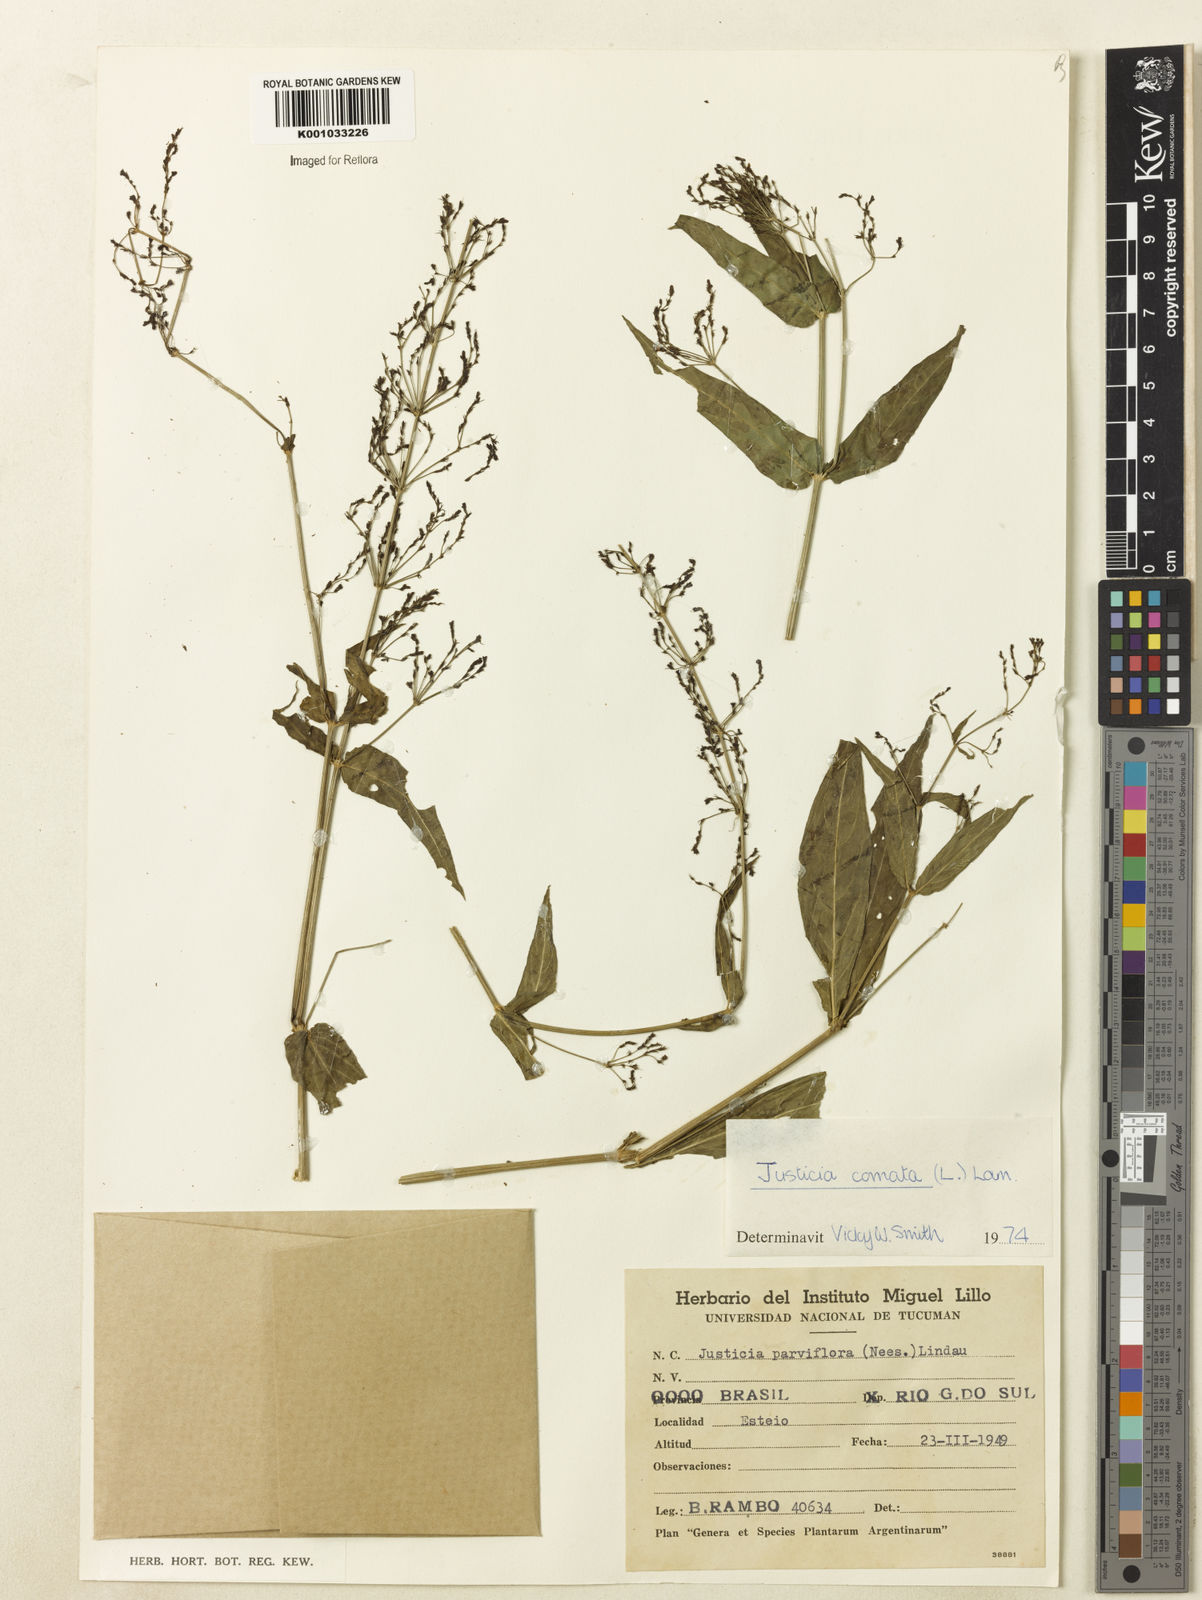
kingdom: Plantae
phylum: Tracheophyta
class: Magnoliopsida
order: Lamiales
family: Acanthaceae
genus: Dianthera
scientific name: Dianthera comata
